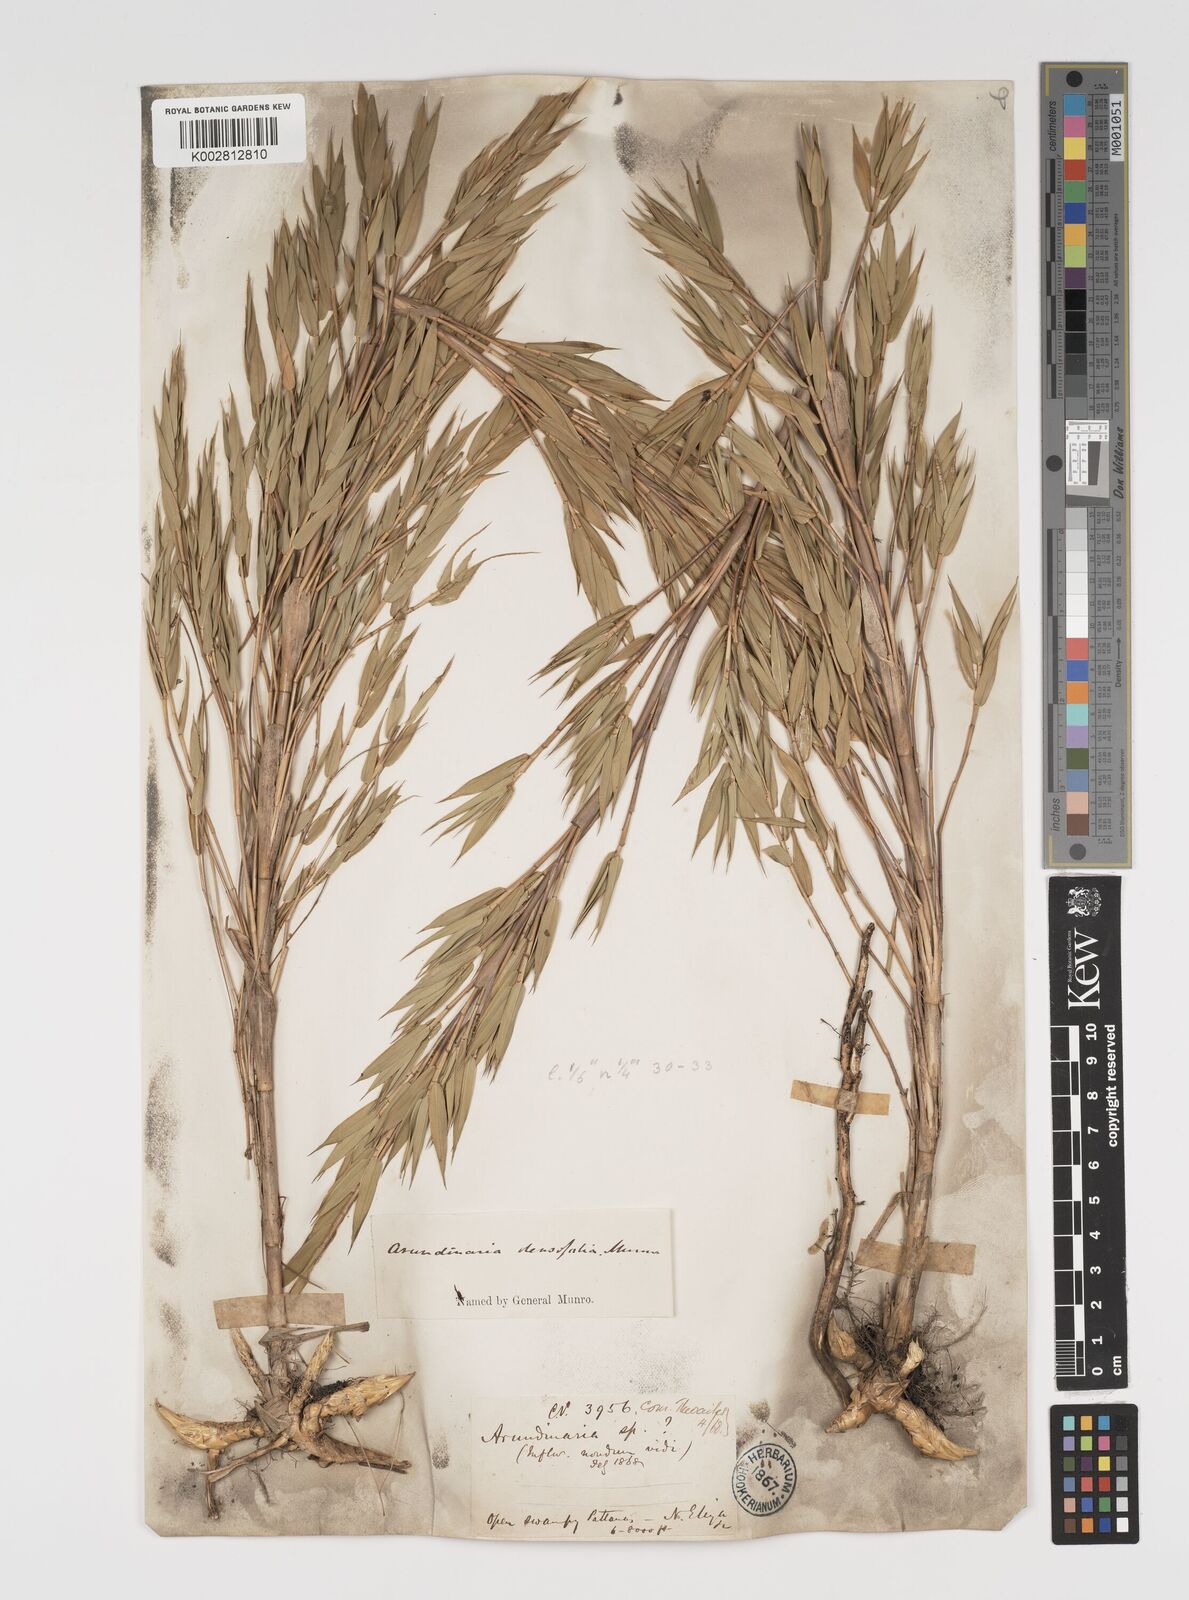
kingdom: Plantae
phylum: Tracheophyta
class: Liliopsida
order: Poales
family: Poaceae
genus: Kuruna
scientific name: Kuruna densifolia
